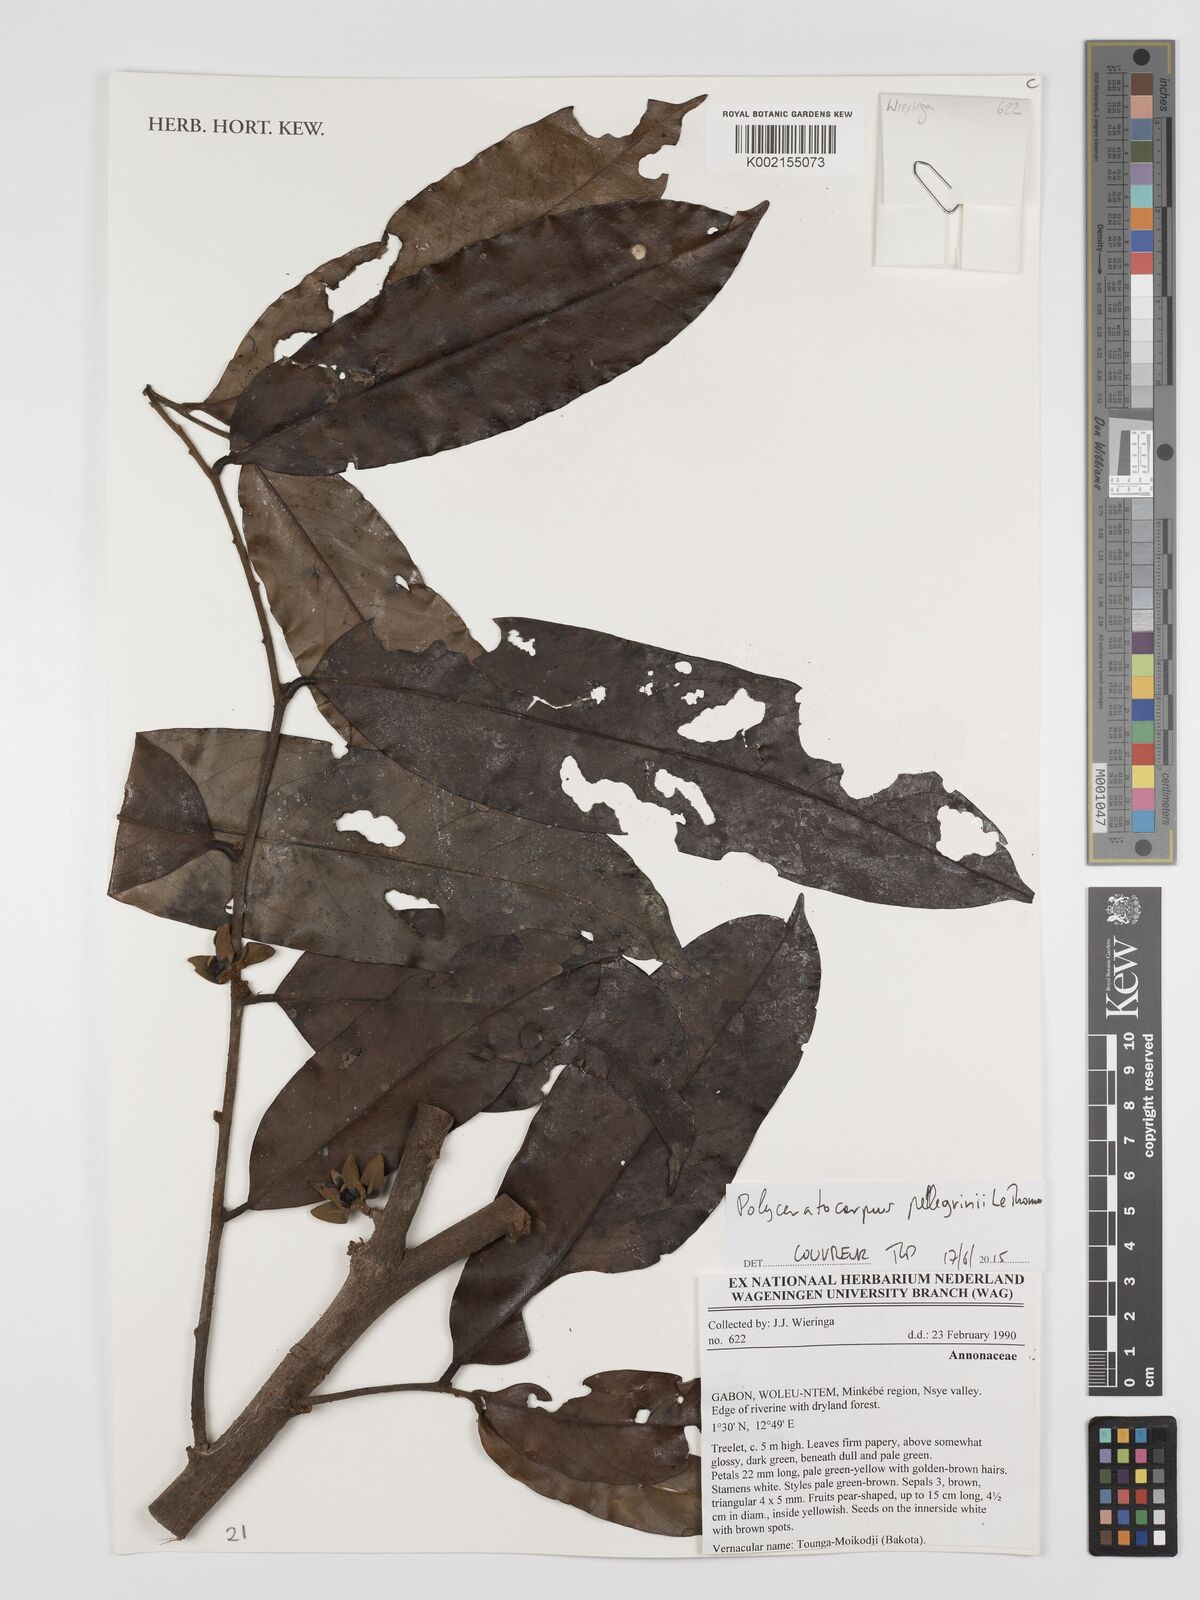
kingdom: Plantae
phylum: Tracheophyta
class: Magnoliopsida
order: Magnoliales
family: Annonaceae
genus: Polyceratocarpus
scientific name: Polyceratocarpus pellegrinii
